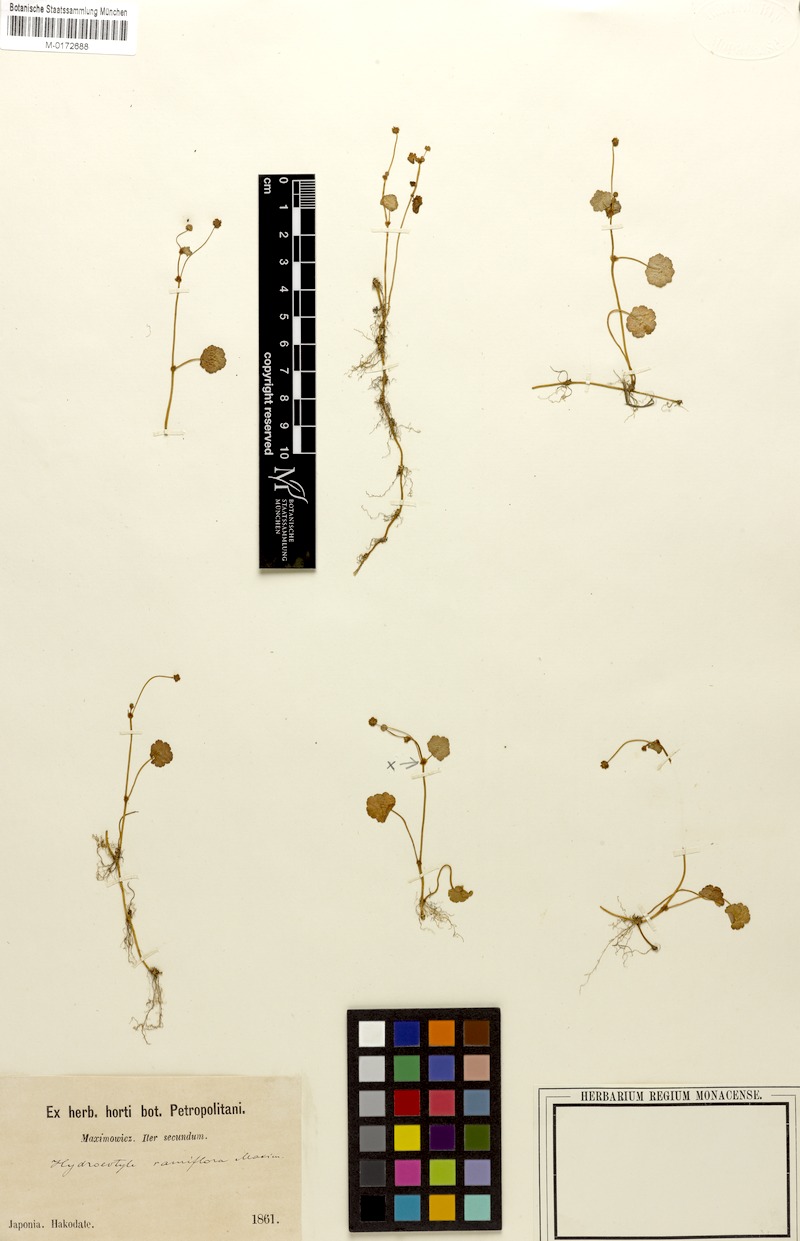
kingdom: Plantae
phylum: Tracheophyta
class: Magnoliopsida
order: Apiales
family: Araliaceae
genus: Hydrocotyle
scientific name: Hydrocotyle ramiflora
